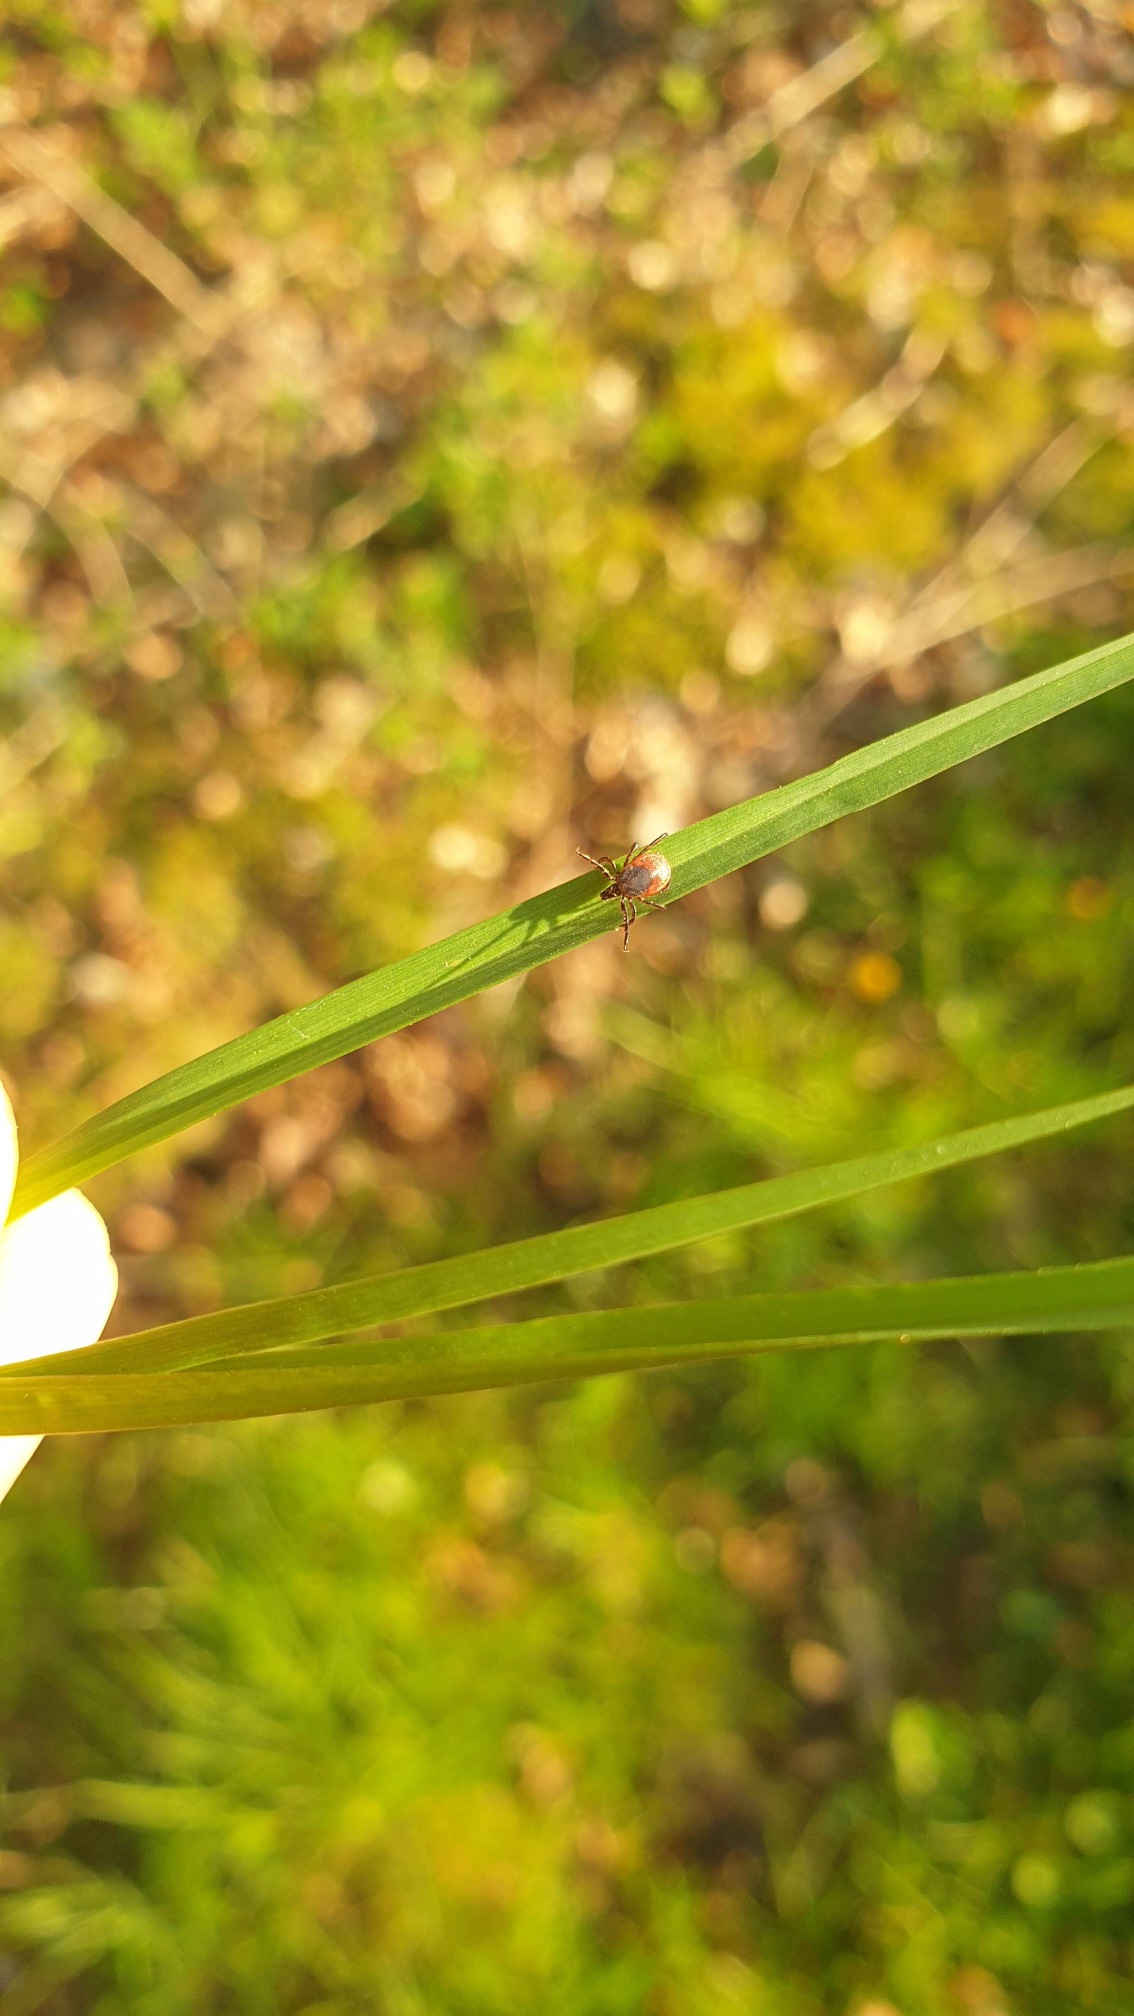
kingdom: Animalia
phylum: Arthropoda
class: Arachnida
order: Ixodida
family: Ixodidae
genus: Ixodes
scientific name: Ixodes ricinus
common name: Skovflåt
